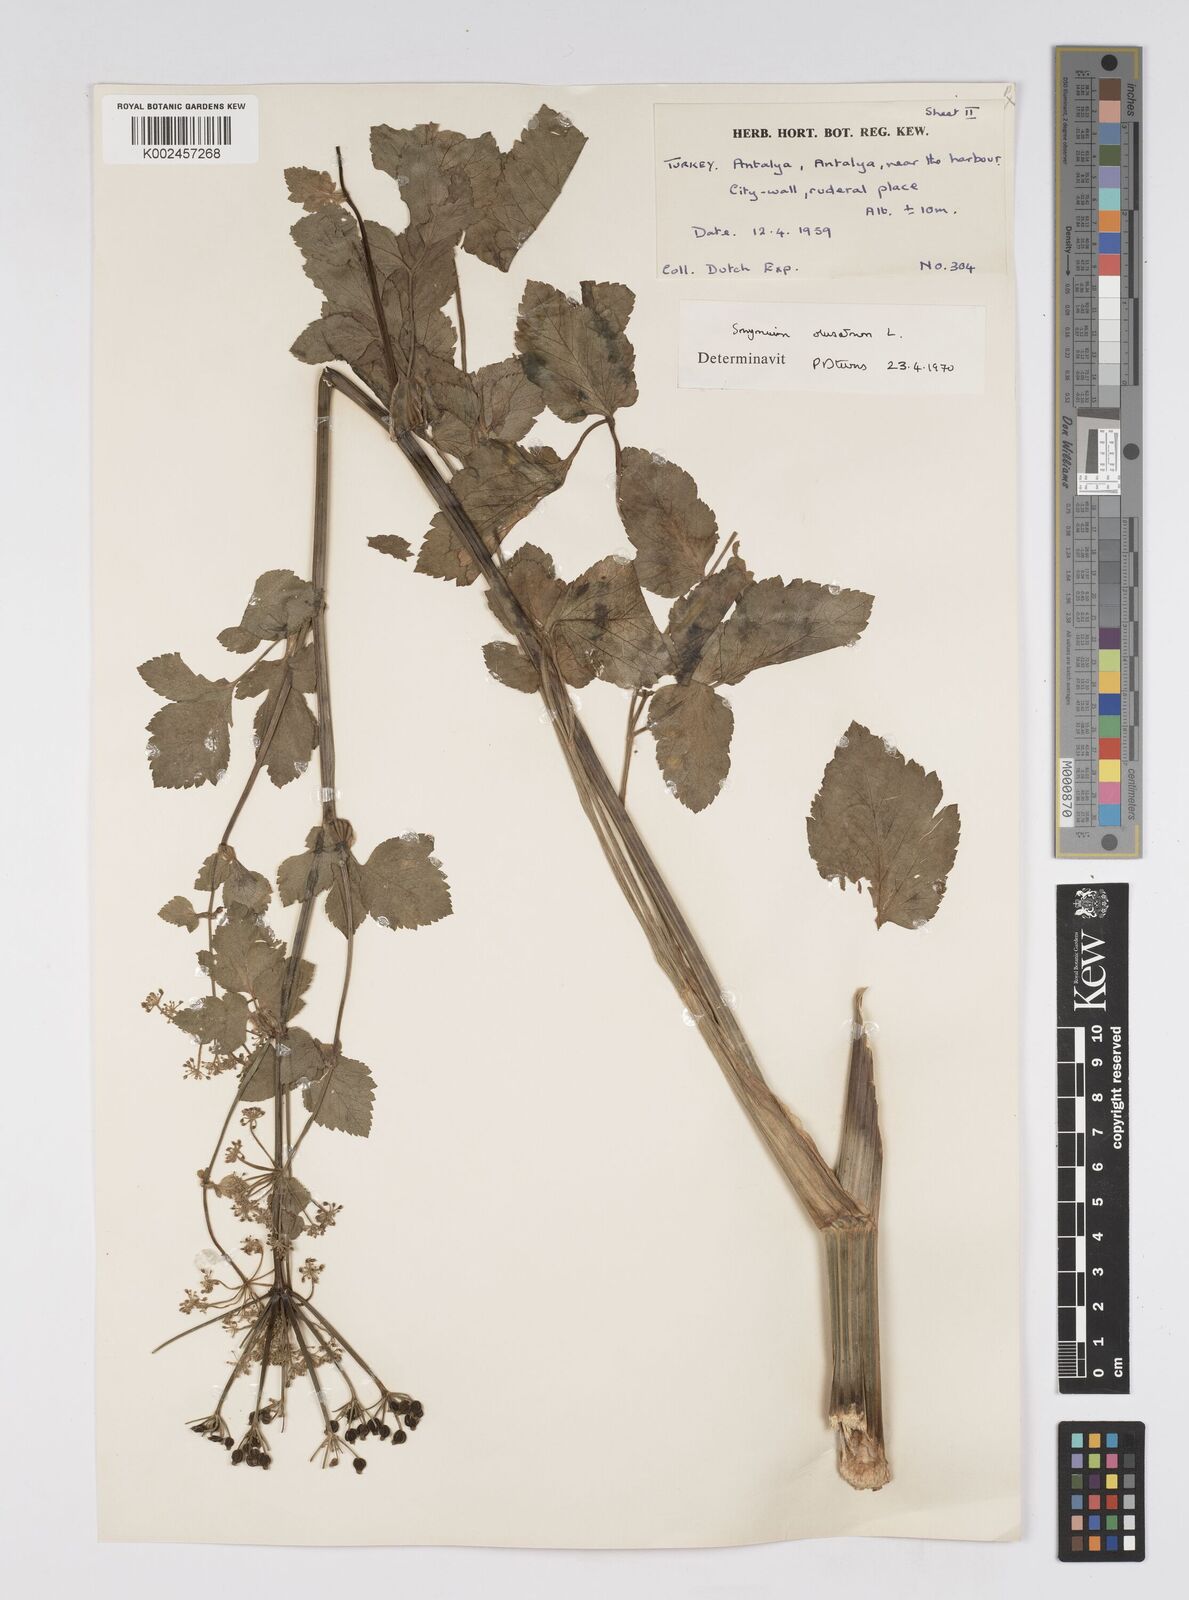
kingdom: Plantae
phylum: Tracheophyta
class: Magnoliopsida
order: Apiales
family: Apiaceae
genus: Smyrnium
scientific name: Smyrnium olusatrum
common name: Alexanders
